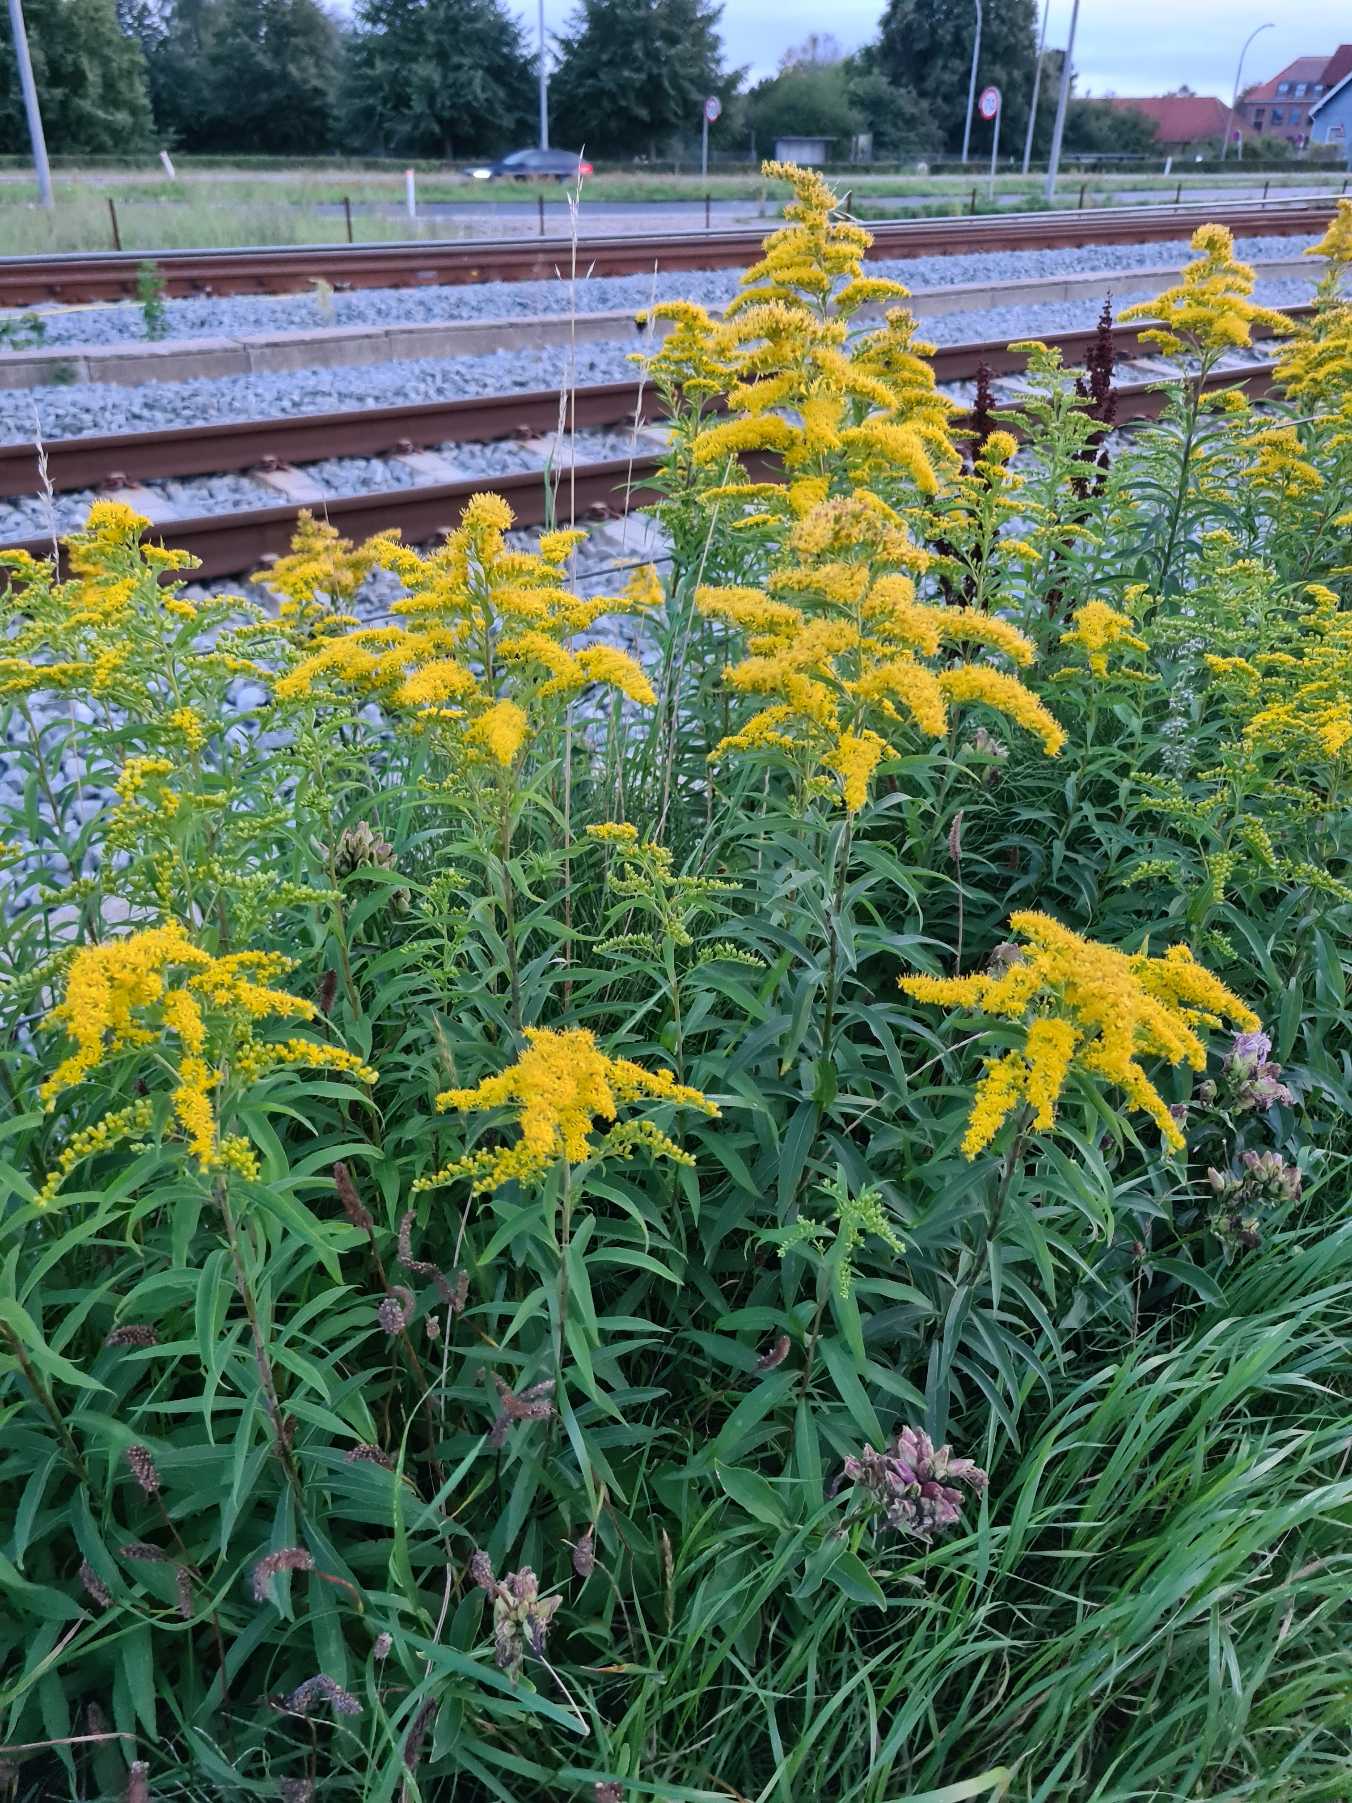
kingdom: Plantae
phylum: Tracheophyta
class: Magnoliopsida
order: Asterales
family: Asteraceae
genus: Solidago
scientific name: Solidago gigantea
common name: Sildig gyldenris
